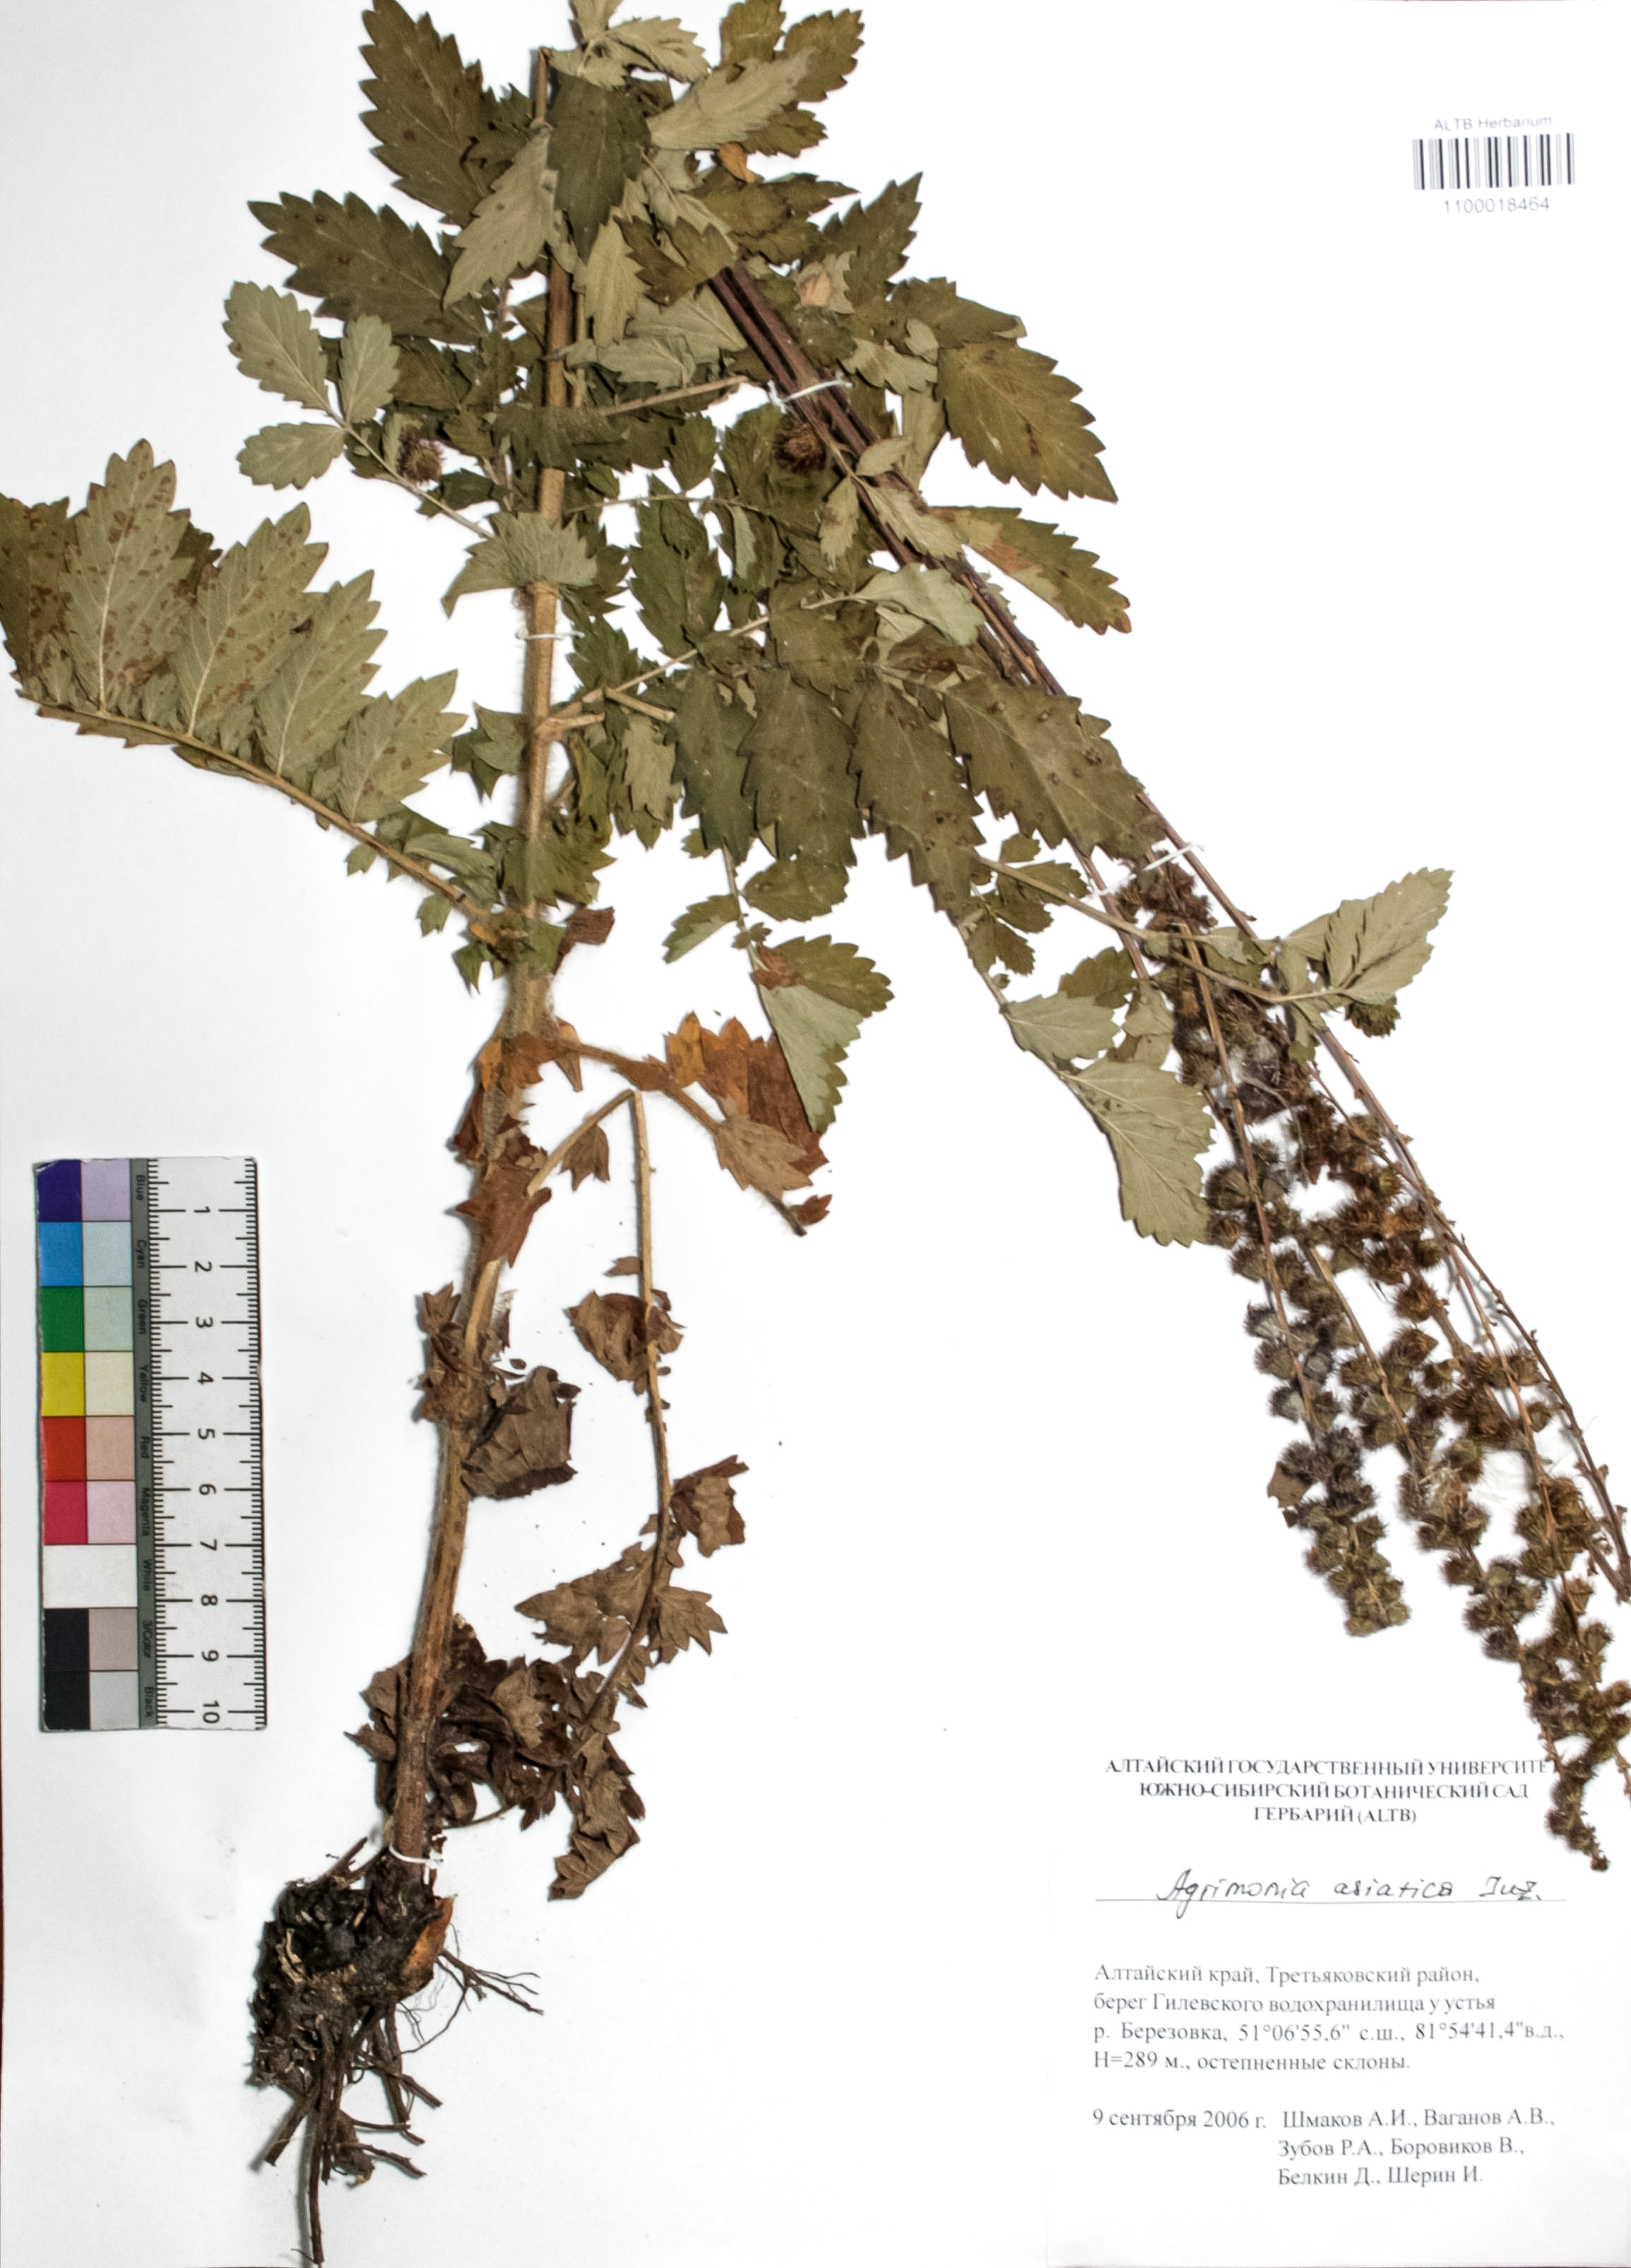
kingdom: Plantae
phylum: Tracheophyta
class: Magnoliopsida
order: Rosales
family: Rosaceae
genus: Agrimonia
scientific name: Agrimonia eupatoria
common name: Agrimony
